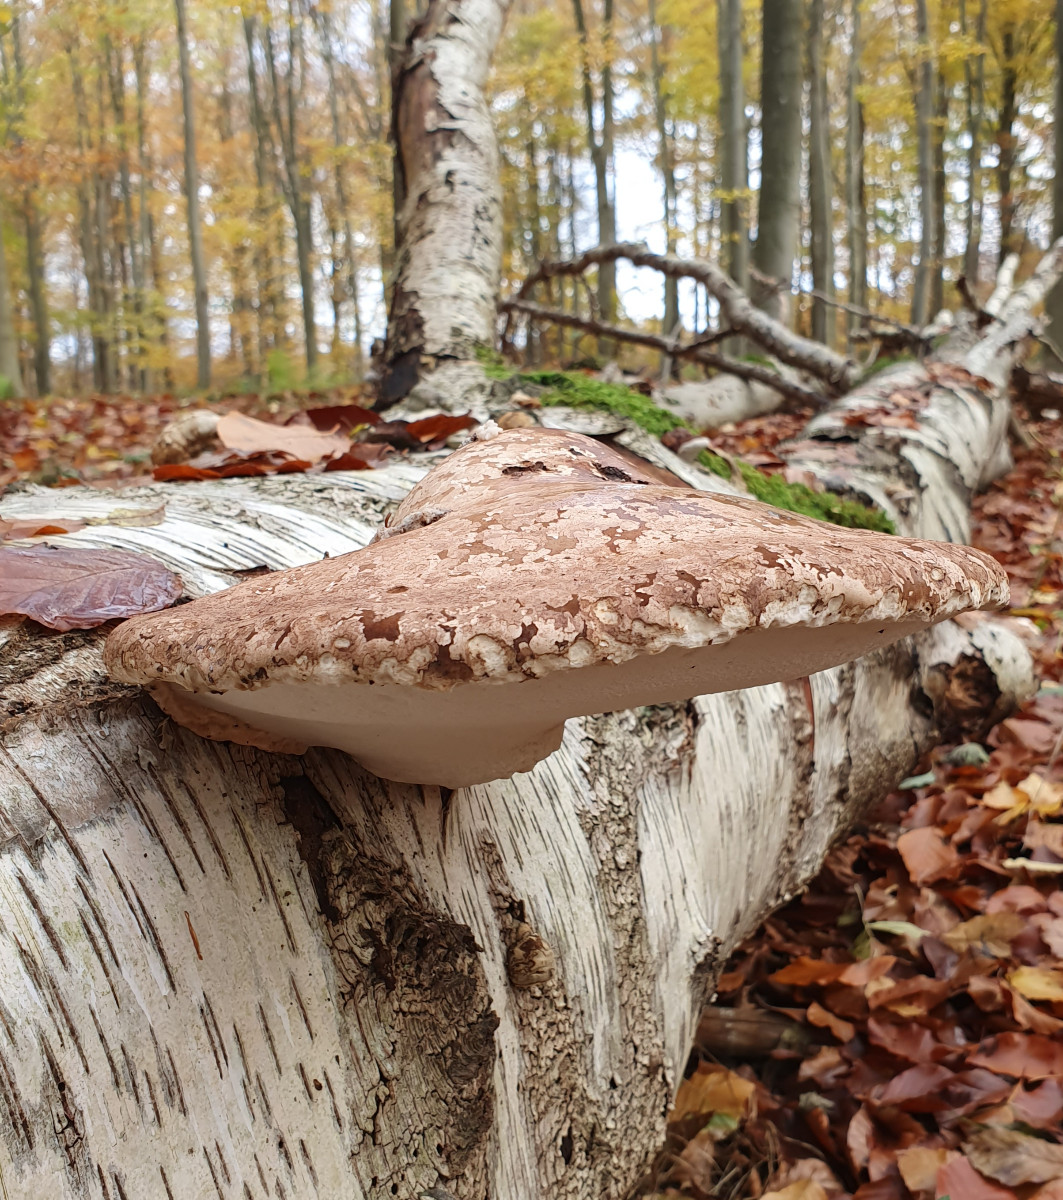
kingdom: Fungi
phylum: Basidiomycota
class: Agaricomycetes
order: Polyporales
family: Fomitopsidaceae
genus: Fomitopsis
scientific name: Fomitopsis betulina
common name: birkeporesvamp
